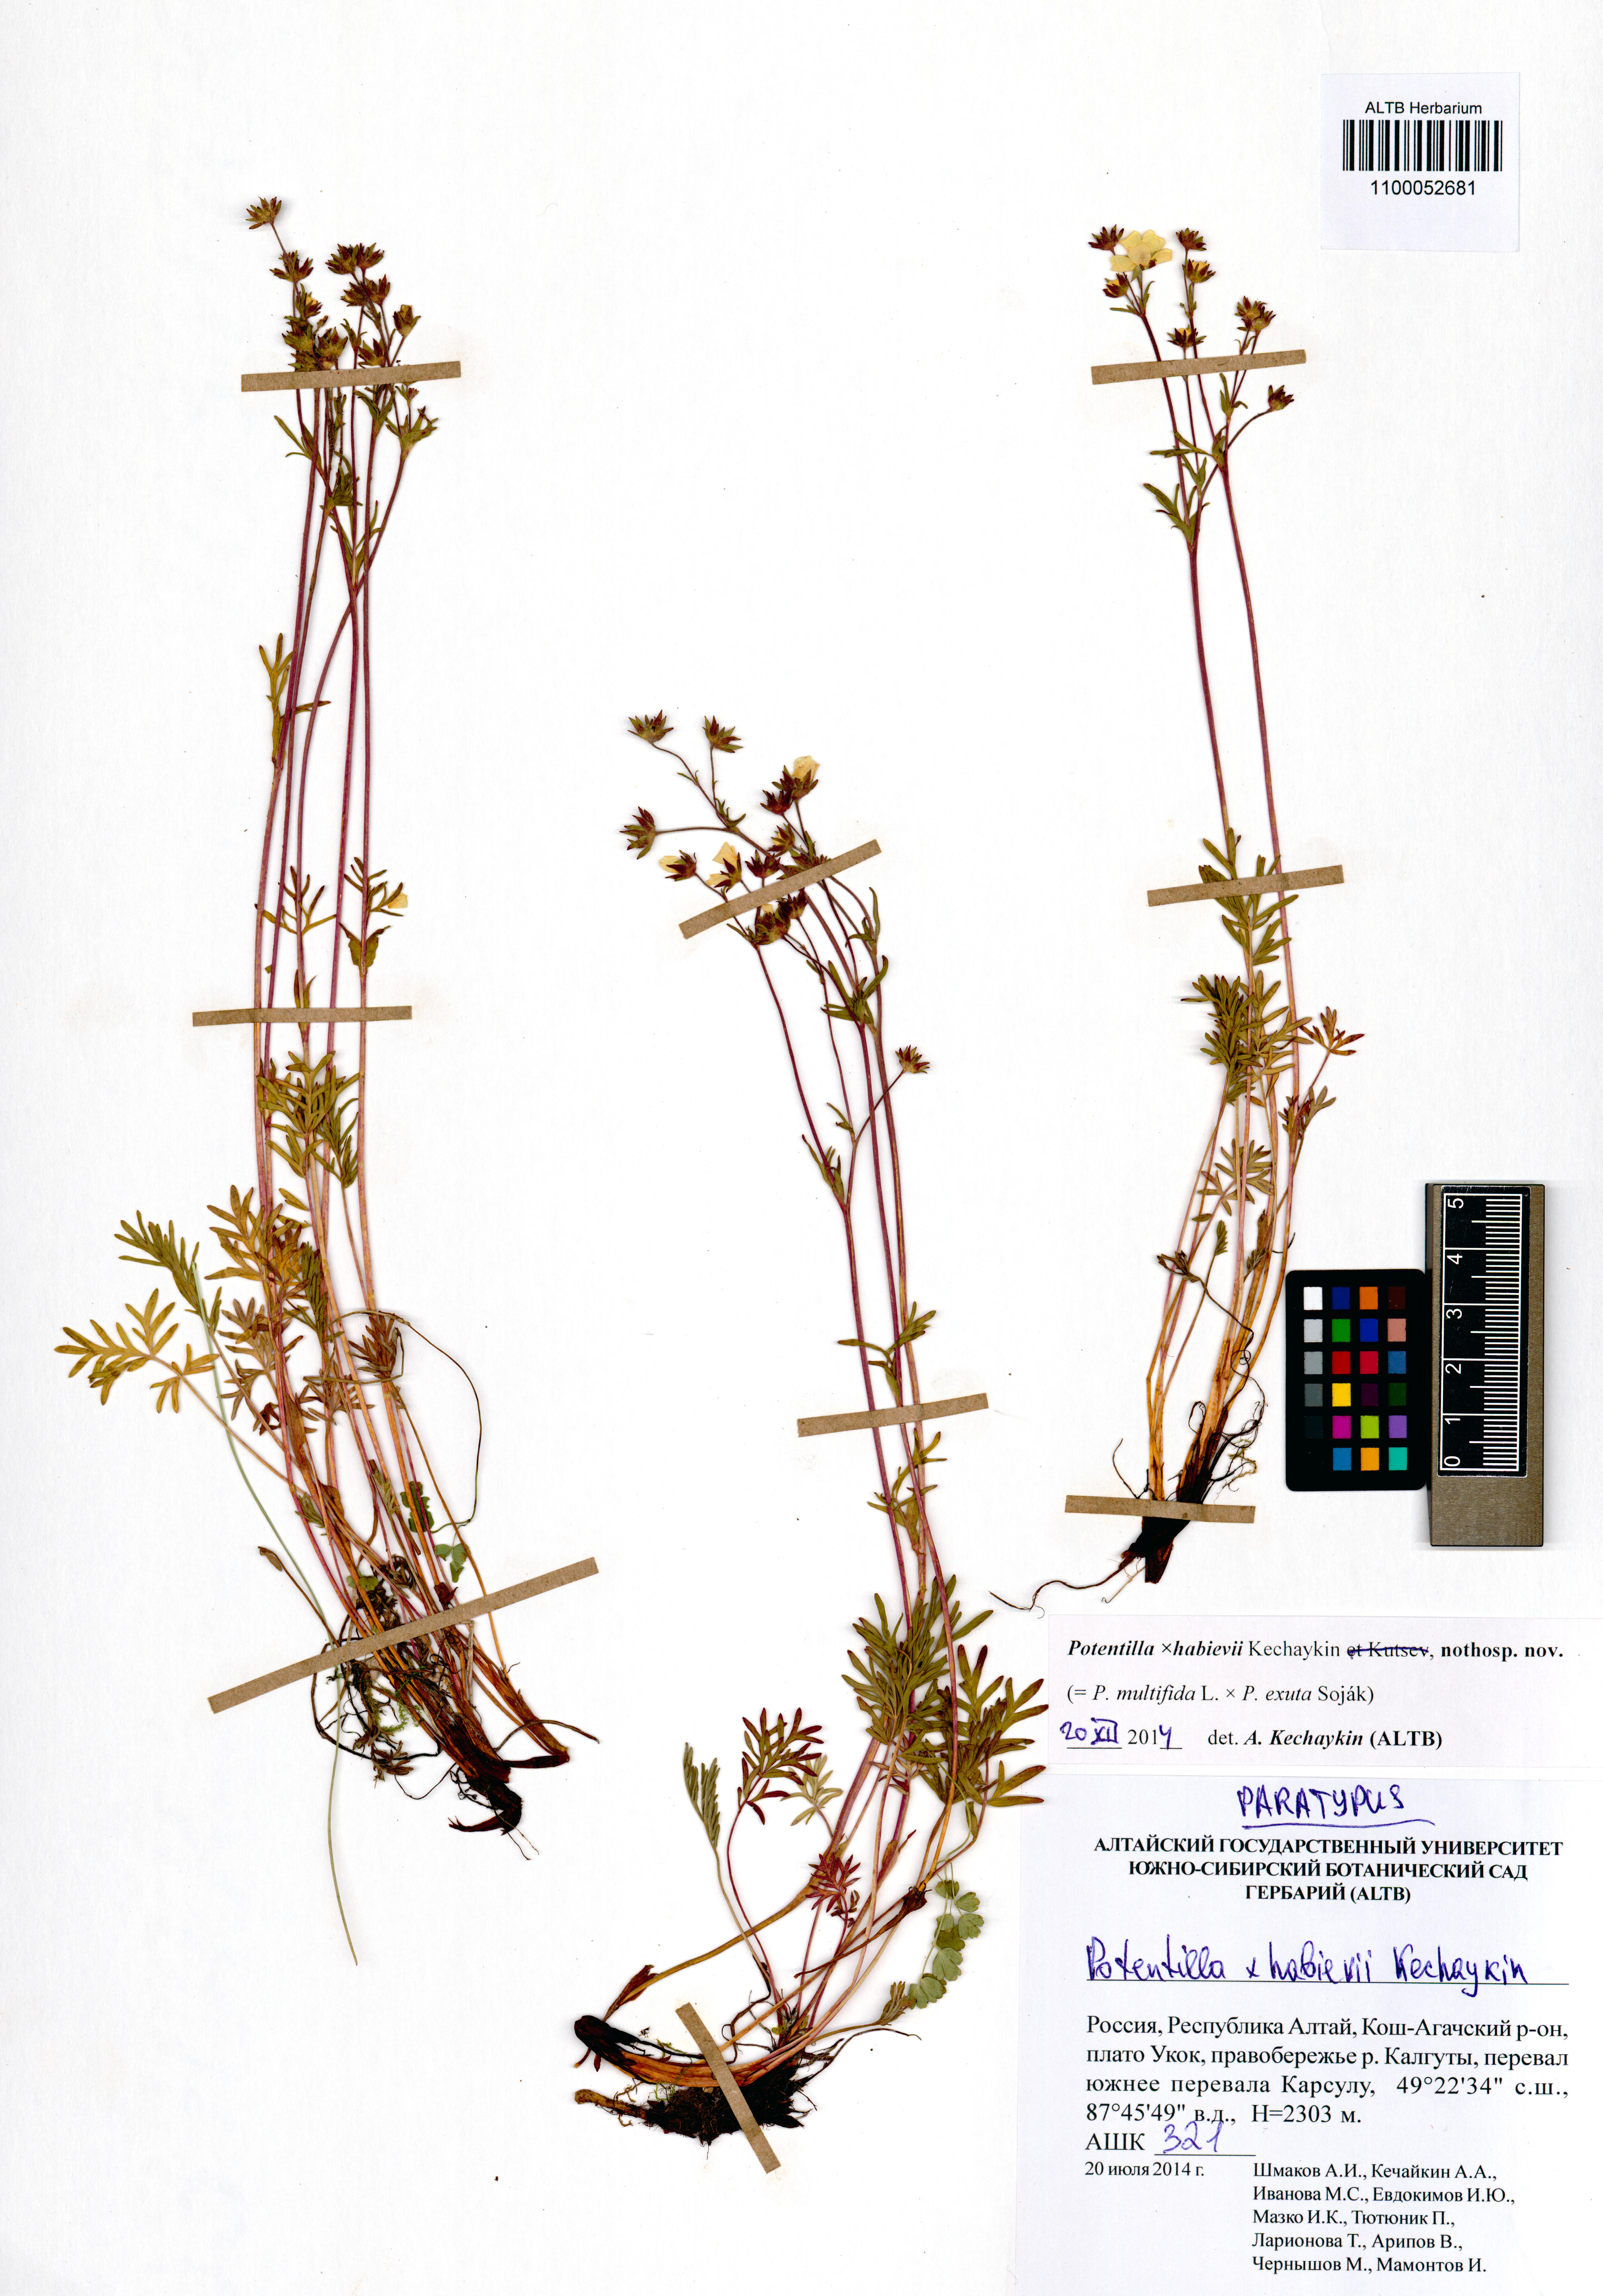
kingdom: Plantae
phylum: Tracheophyta
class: Magnoliopsida
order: Rosales
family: Rosaceae
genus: Potentilla
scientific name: Potentilla habievii
